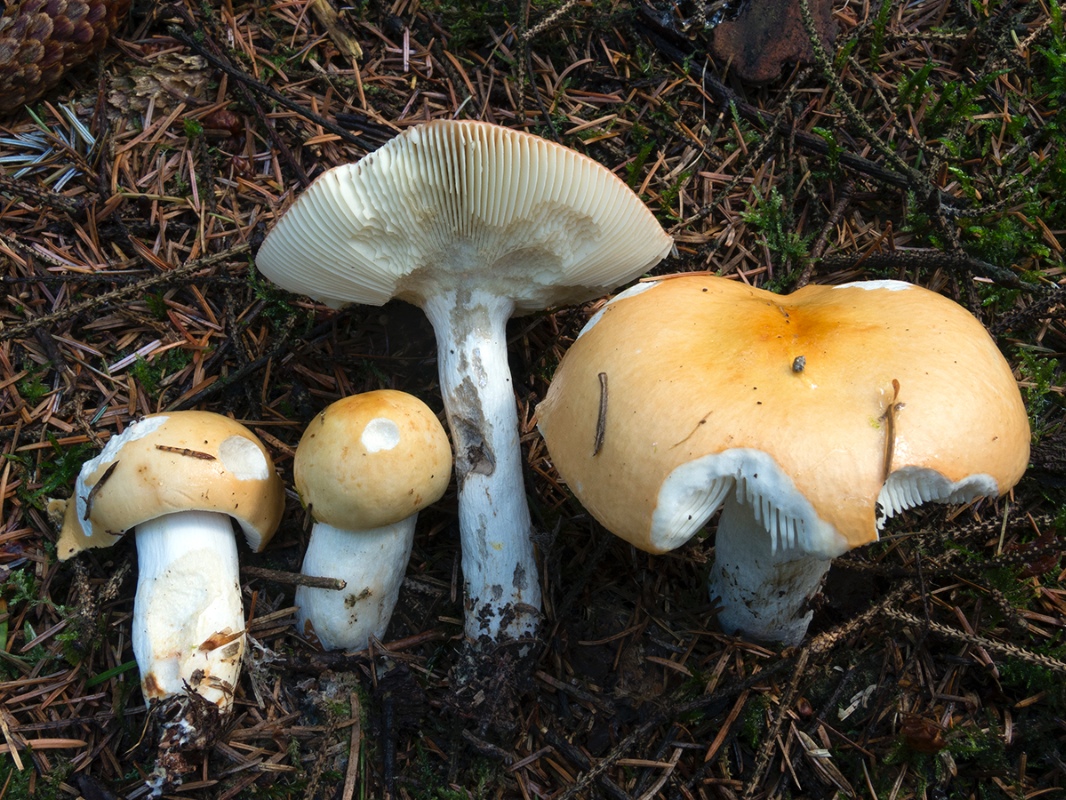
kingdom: Fungi
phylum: Basidiomycota
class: Agaricomycetes
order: Russulales
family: Russulaceae
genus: Russula
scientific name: Russula decolorans
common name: afblegende skørhat
